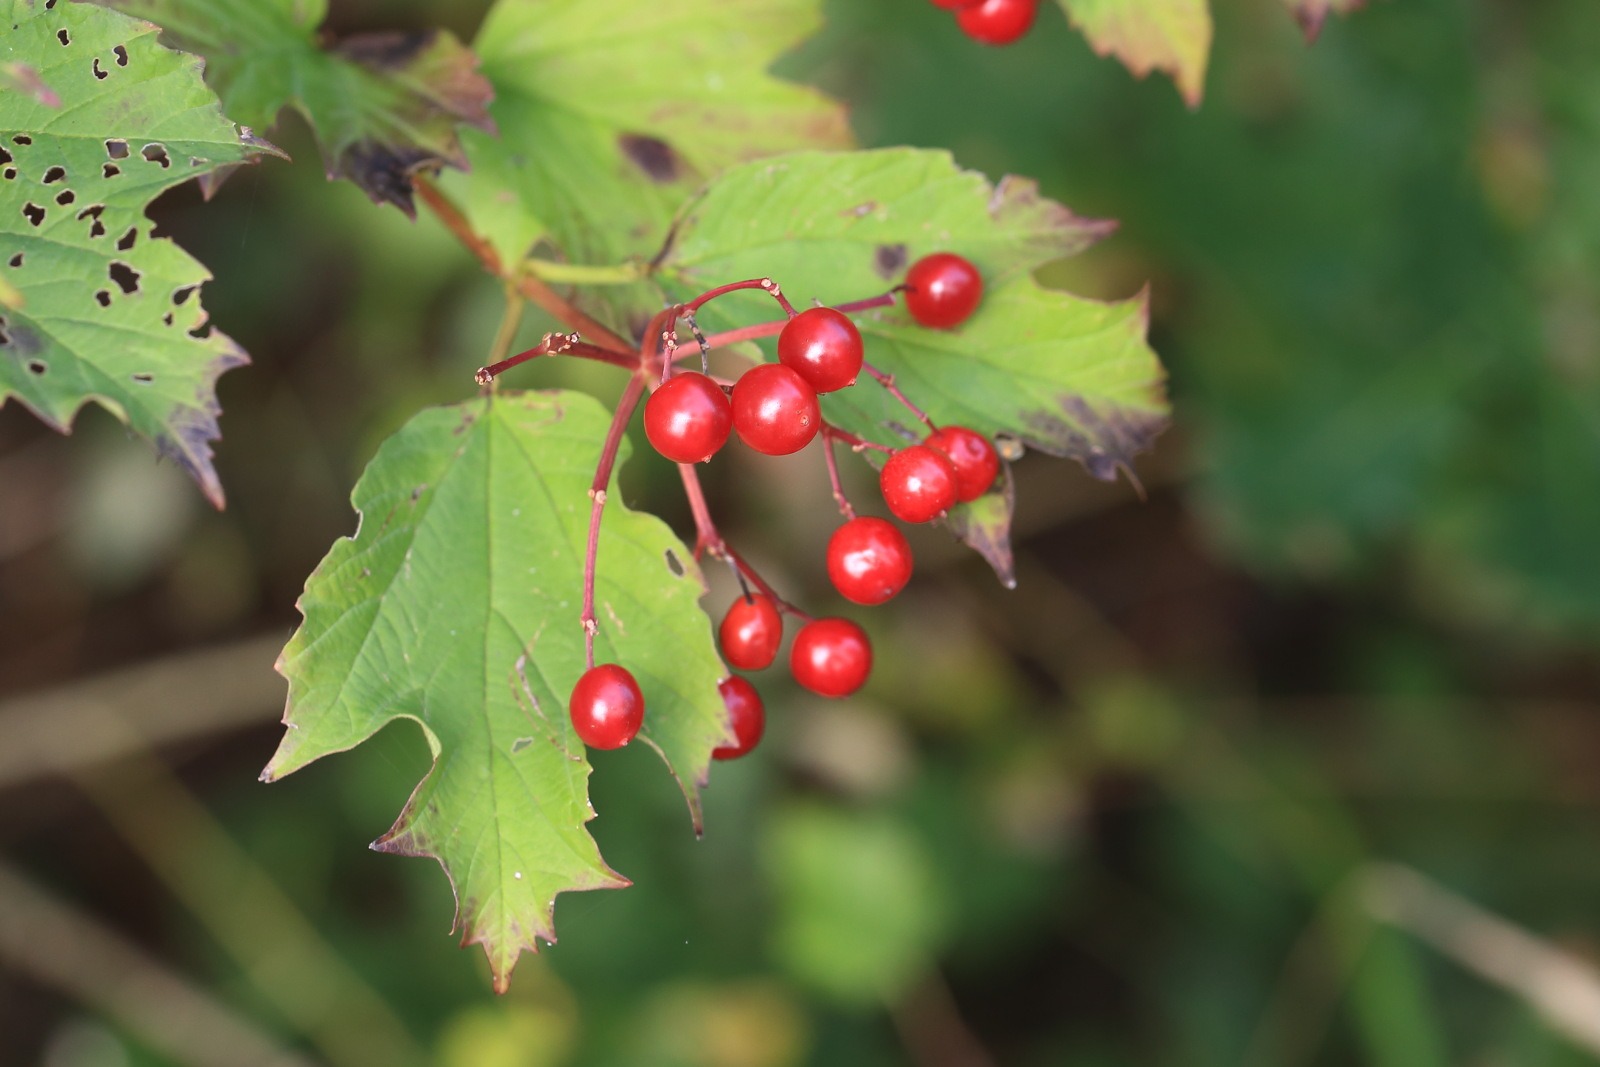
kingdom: Plantae
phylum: Tracheophyta
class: Magnoliopsida
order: Dipsacales
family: Viburnaceae
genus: Viburnum
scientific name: Viburnum opulus
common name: Kvalkved
